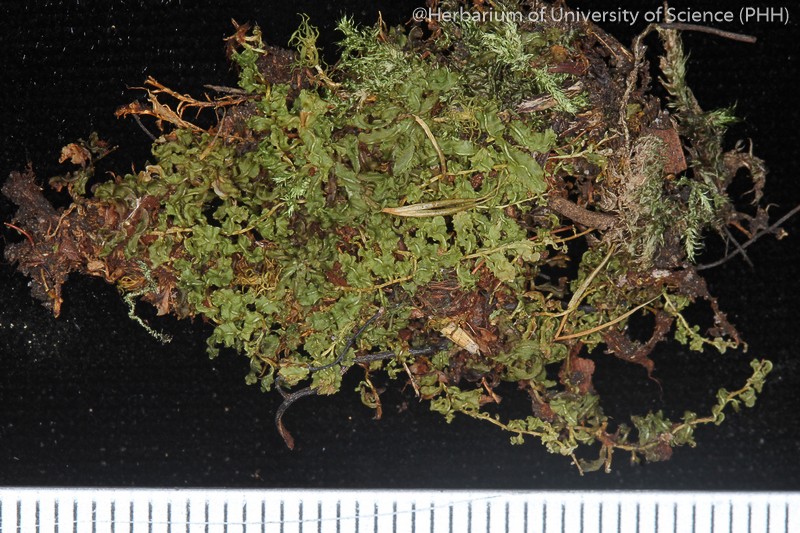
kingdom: Plantae
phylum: Bryophyta
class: Bryopsida
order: Bryales
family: Mniaceae
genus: Plagiomnium
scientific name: Plagiomnium rostratum
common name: Long-beaked leafy moss
